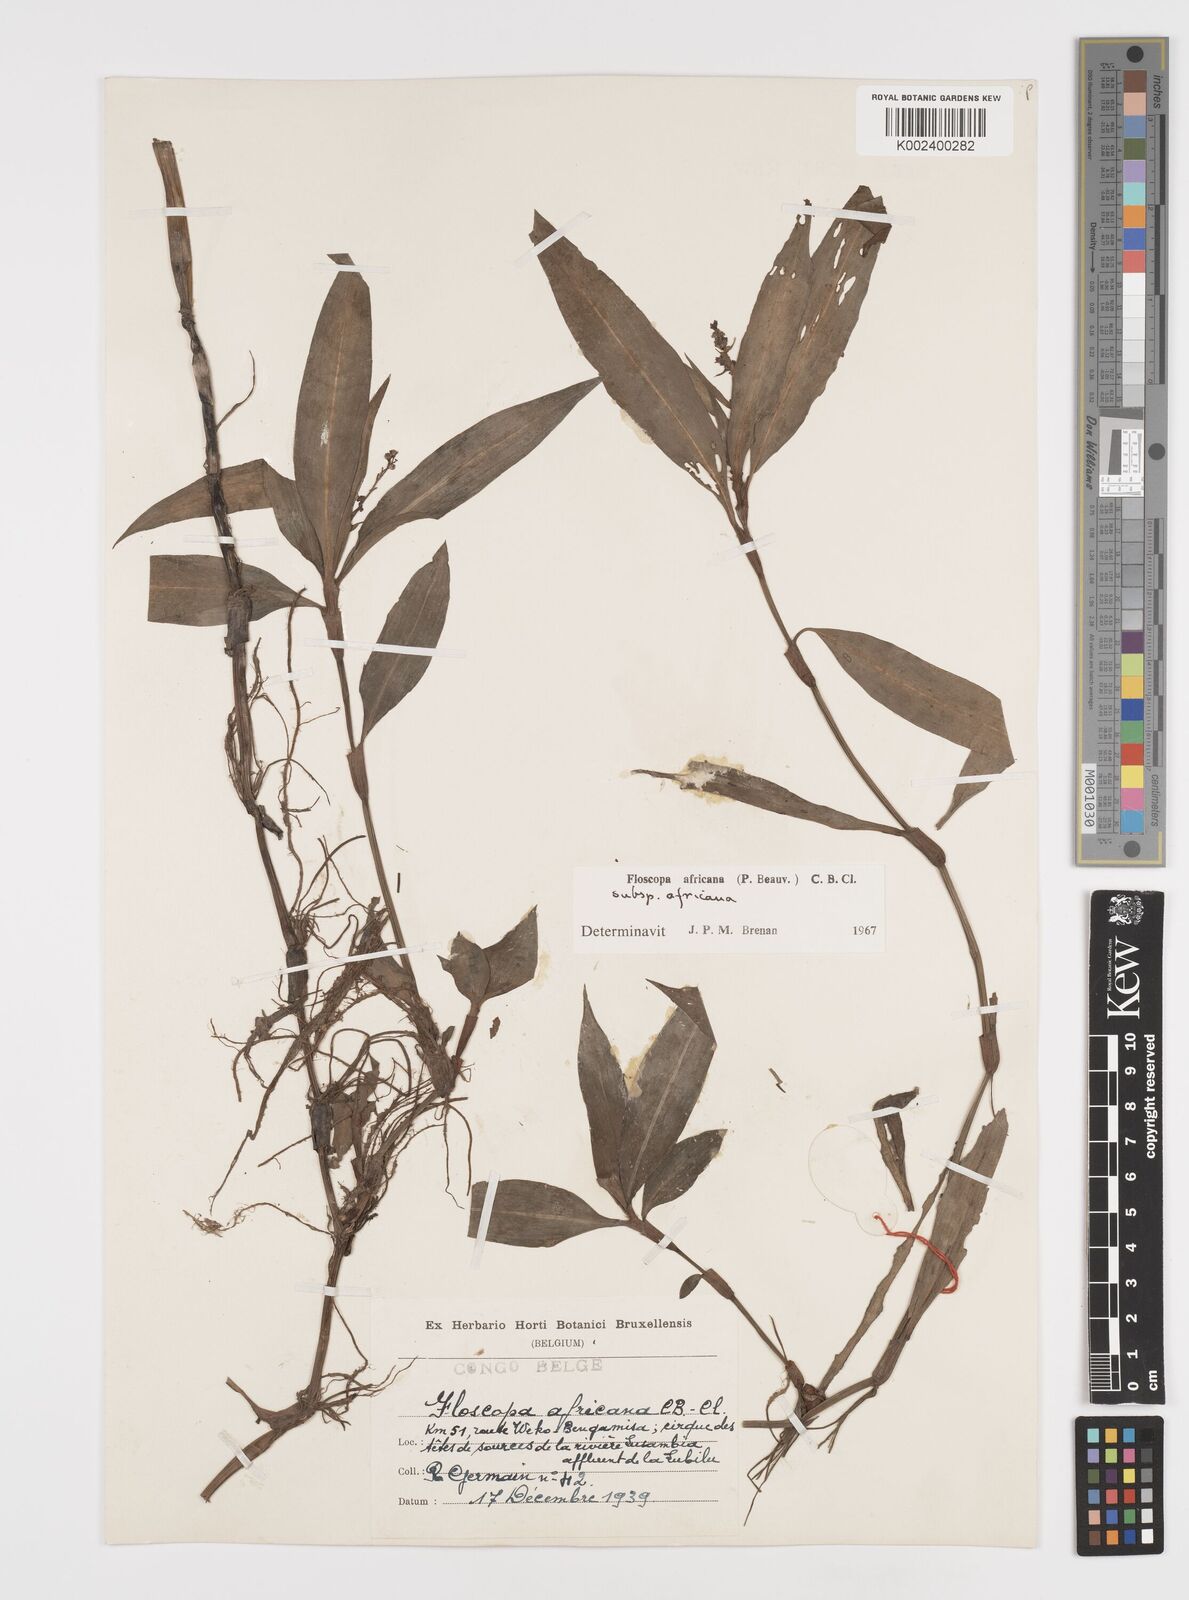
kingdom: Plantae
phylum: Tracheophyta
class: Liliopsida
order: Commelinales
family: Commelinaceae
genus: Floscopa
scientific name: Floscopa africana
